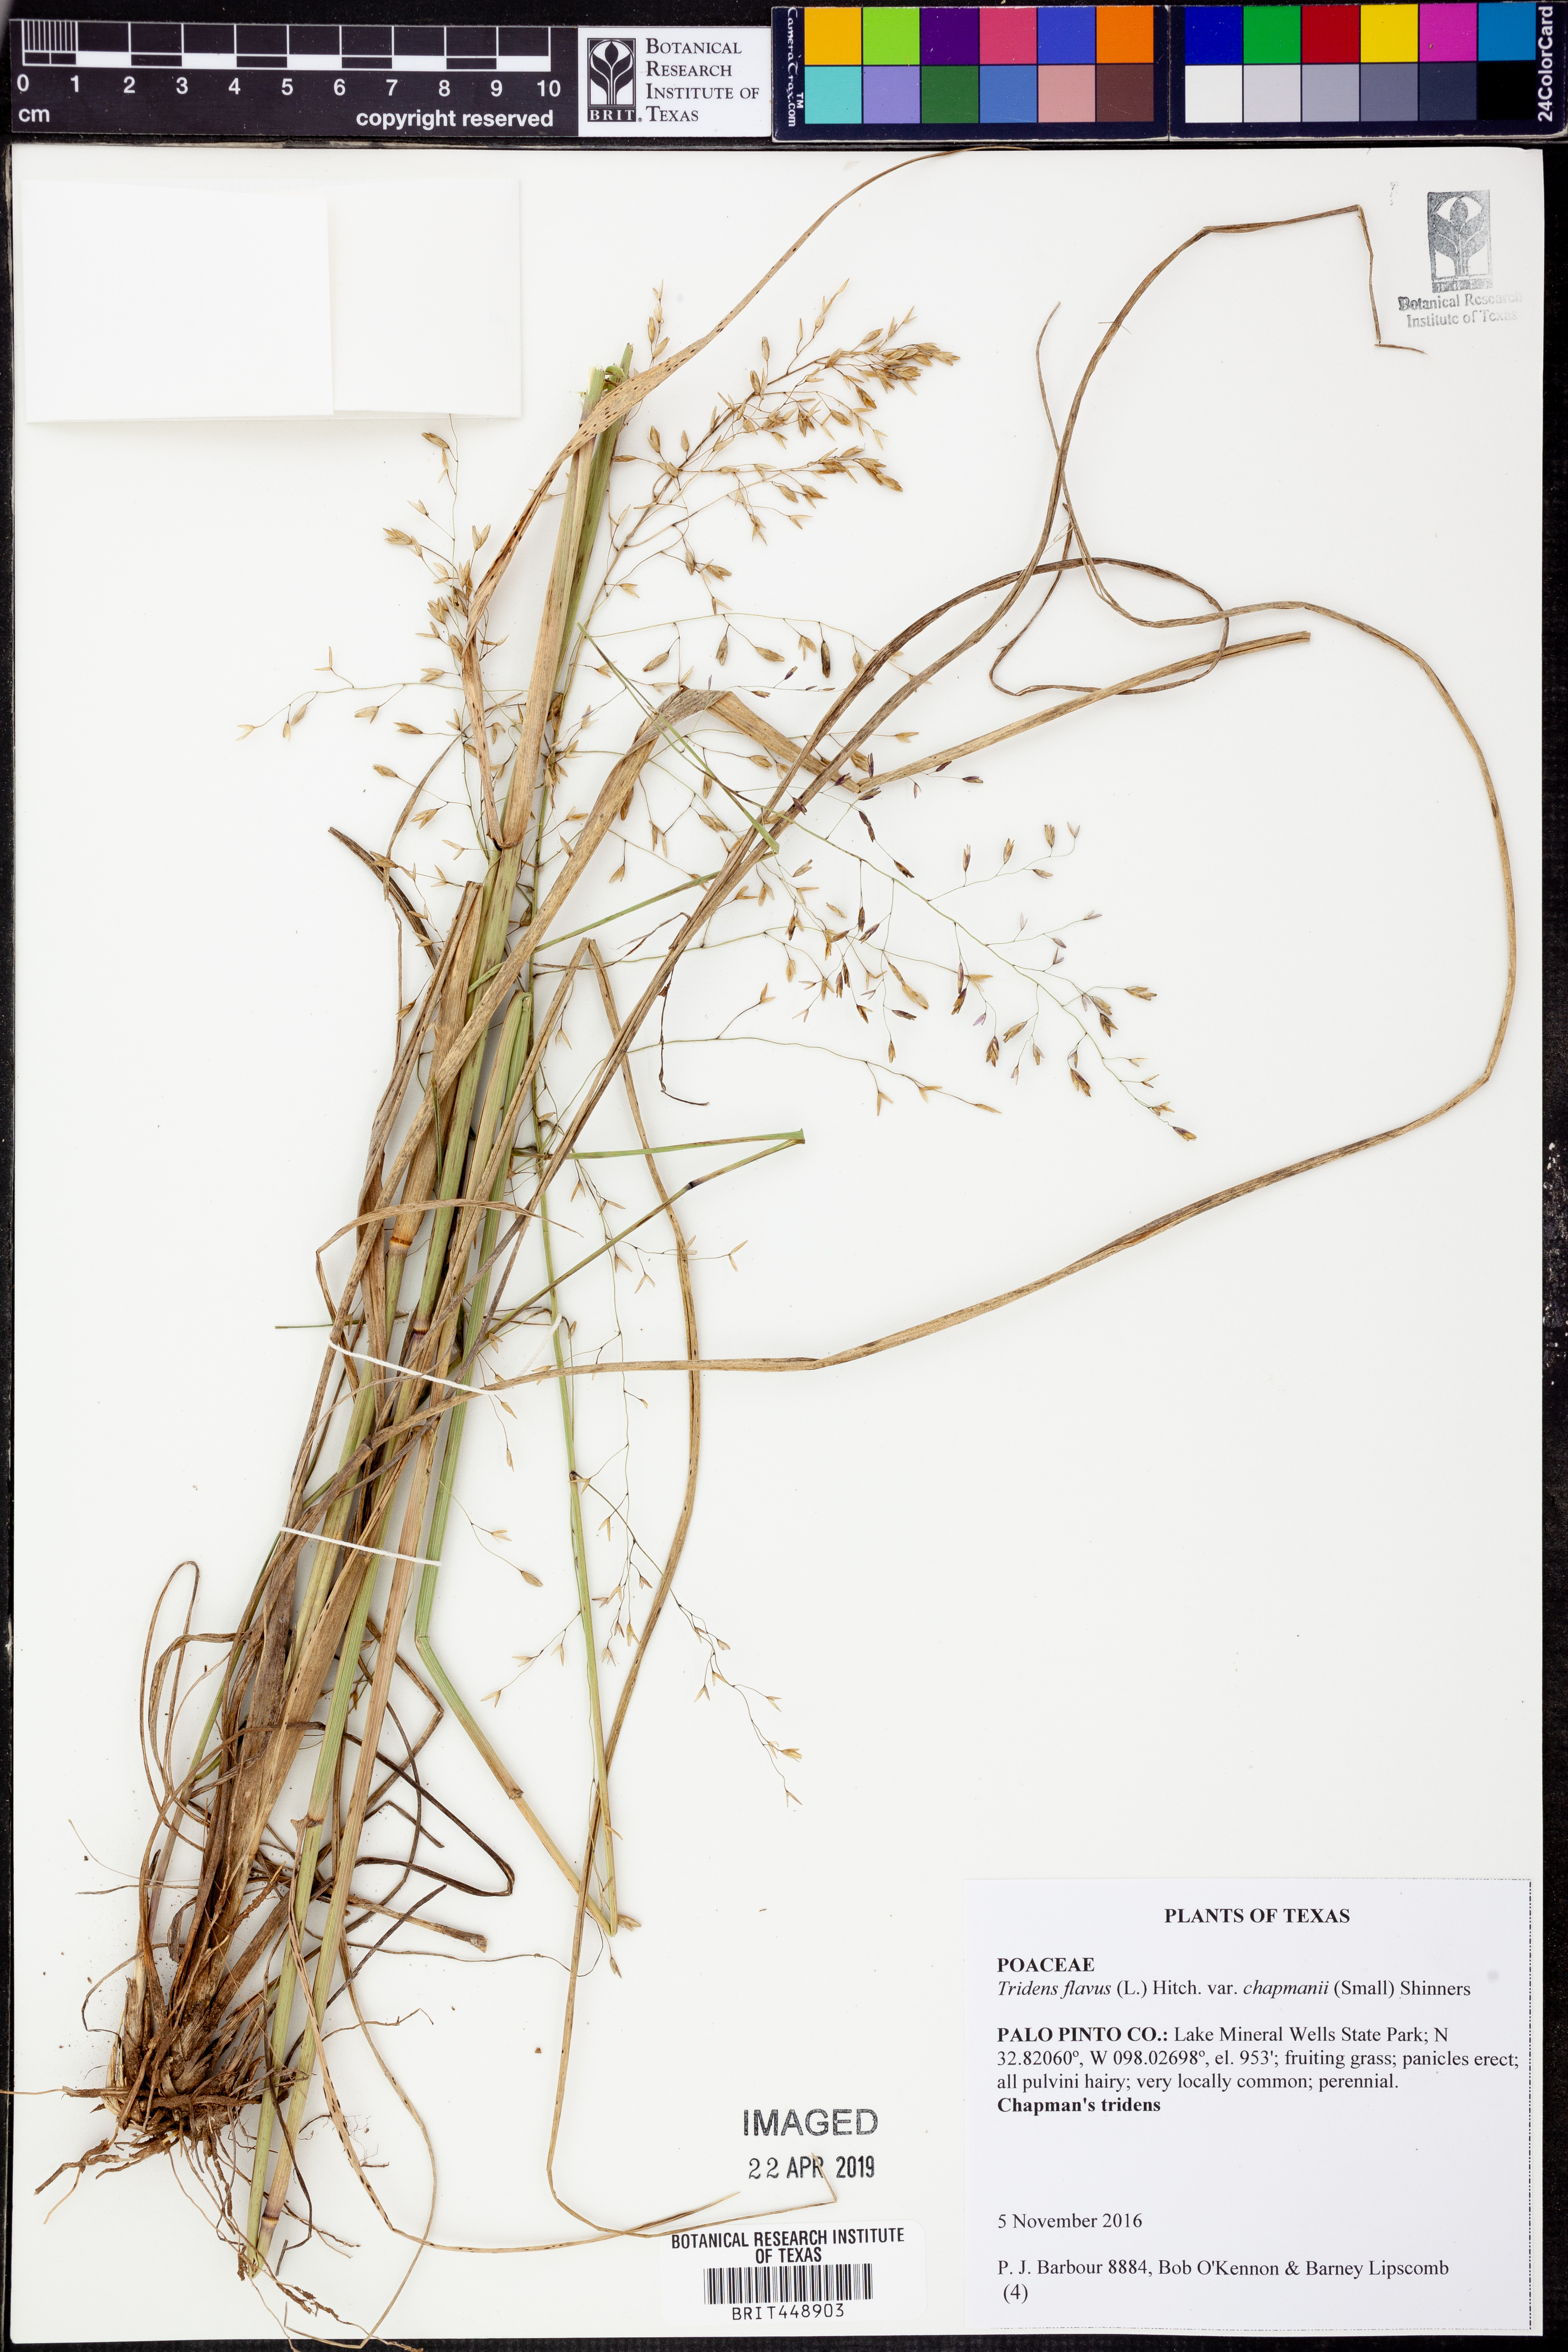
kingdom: Plantae
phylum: Tracheophyta
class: Liliopsida
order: Poales
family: Poaceae
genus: Tridens
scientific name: Tridens chapmanii
